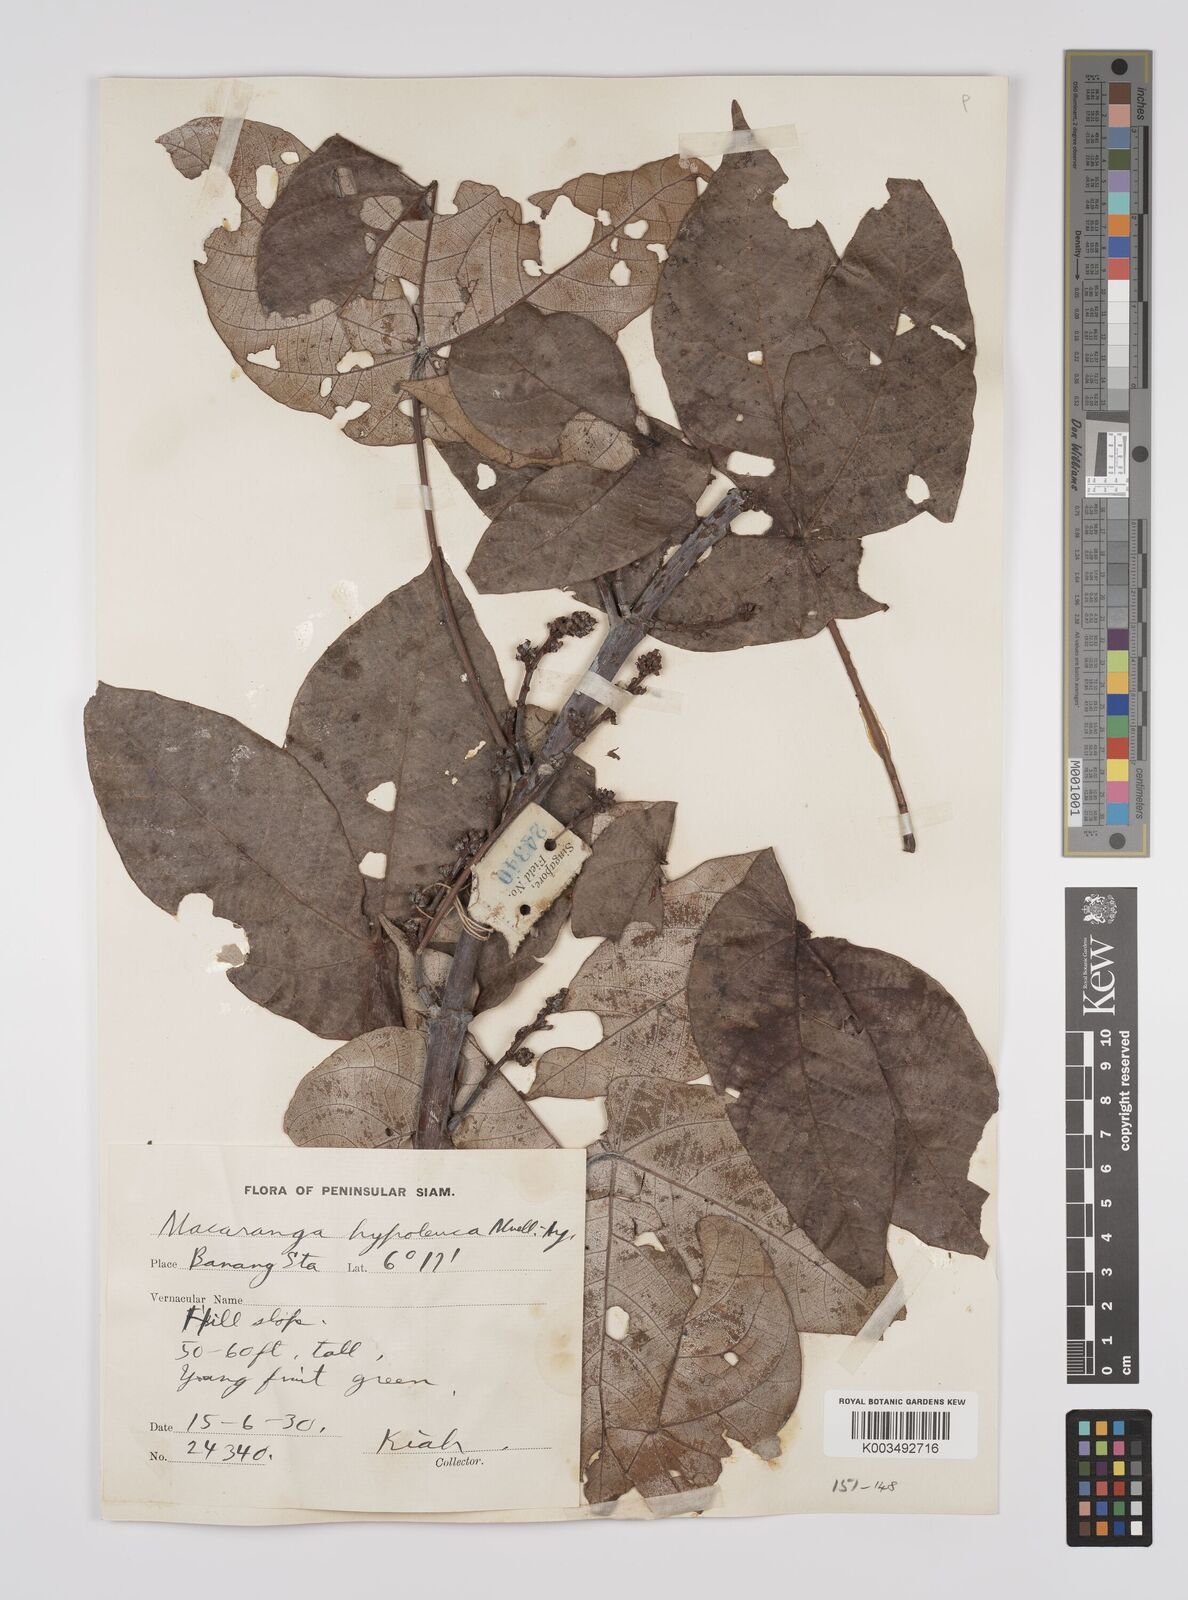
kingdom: Plantae
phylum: Tracheophyta
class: Magnoliopsida
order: Malpighiales
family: Euphorbiaceae
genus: Macaranga
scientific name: Macaranga hypoleuca
